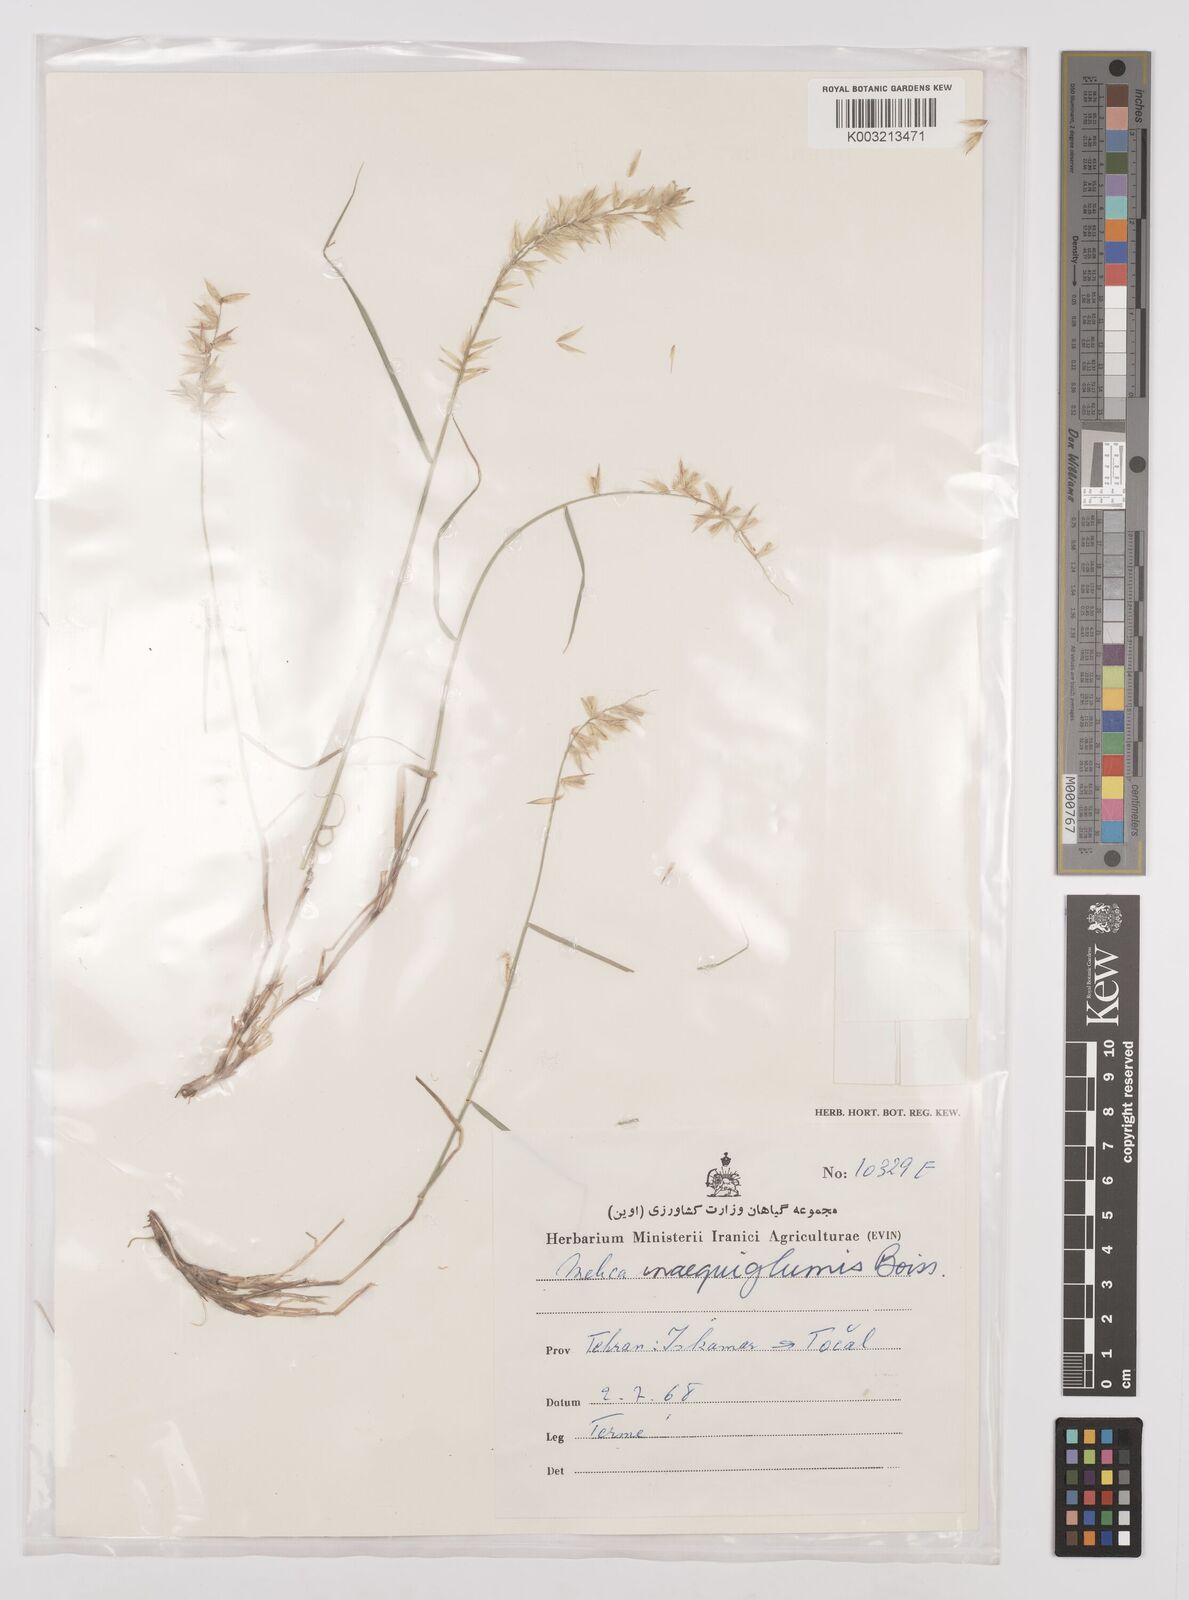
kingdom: Plantae
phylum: Tracheophyta
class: Liliopsida
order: Poales
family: Poaceae
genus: Melica
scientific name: Melica persica
